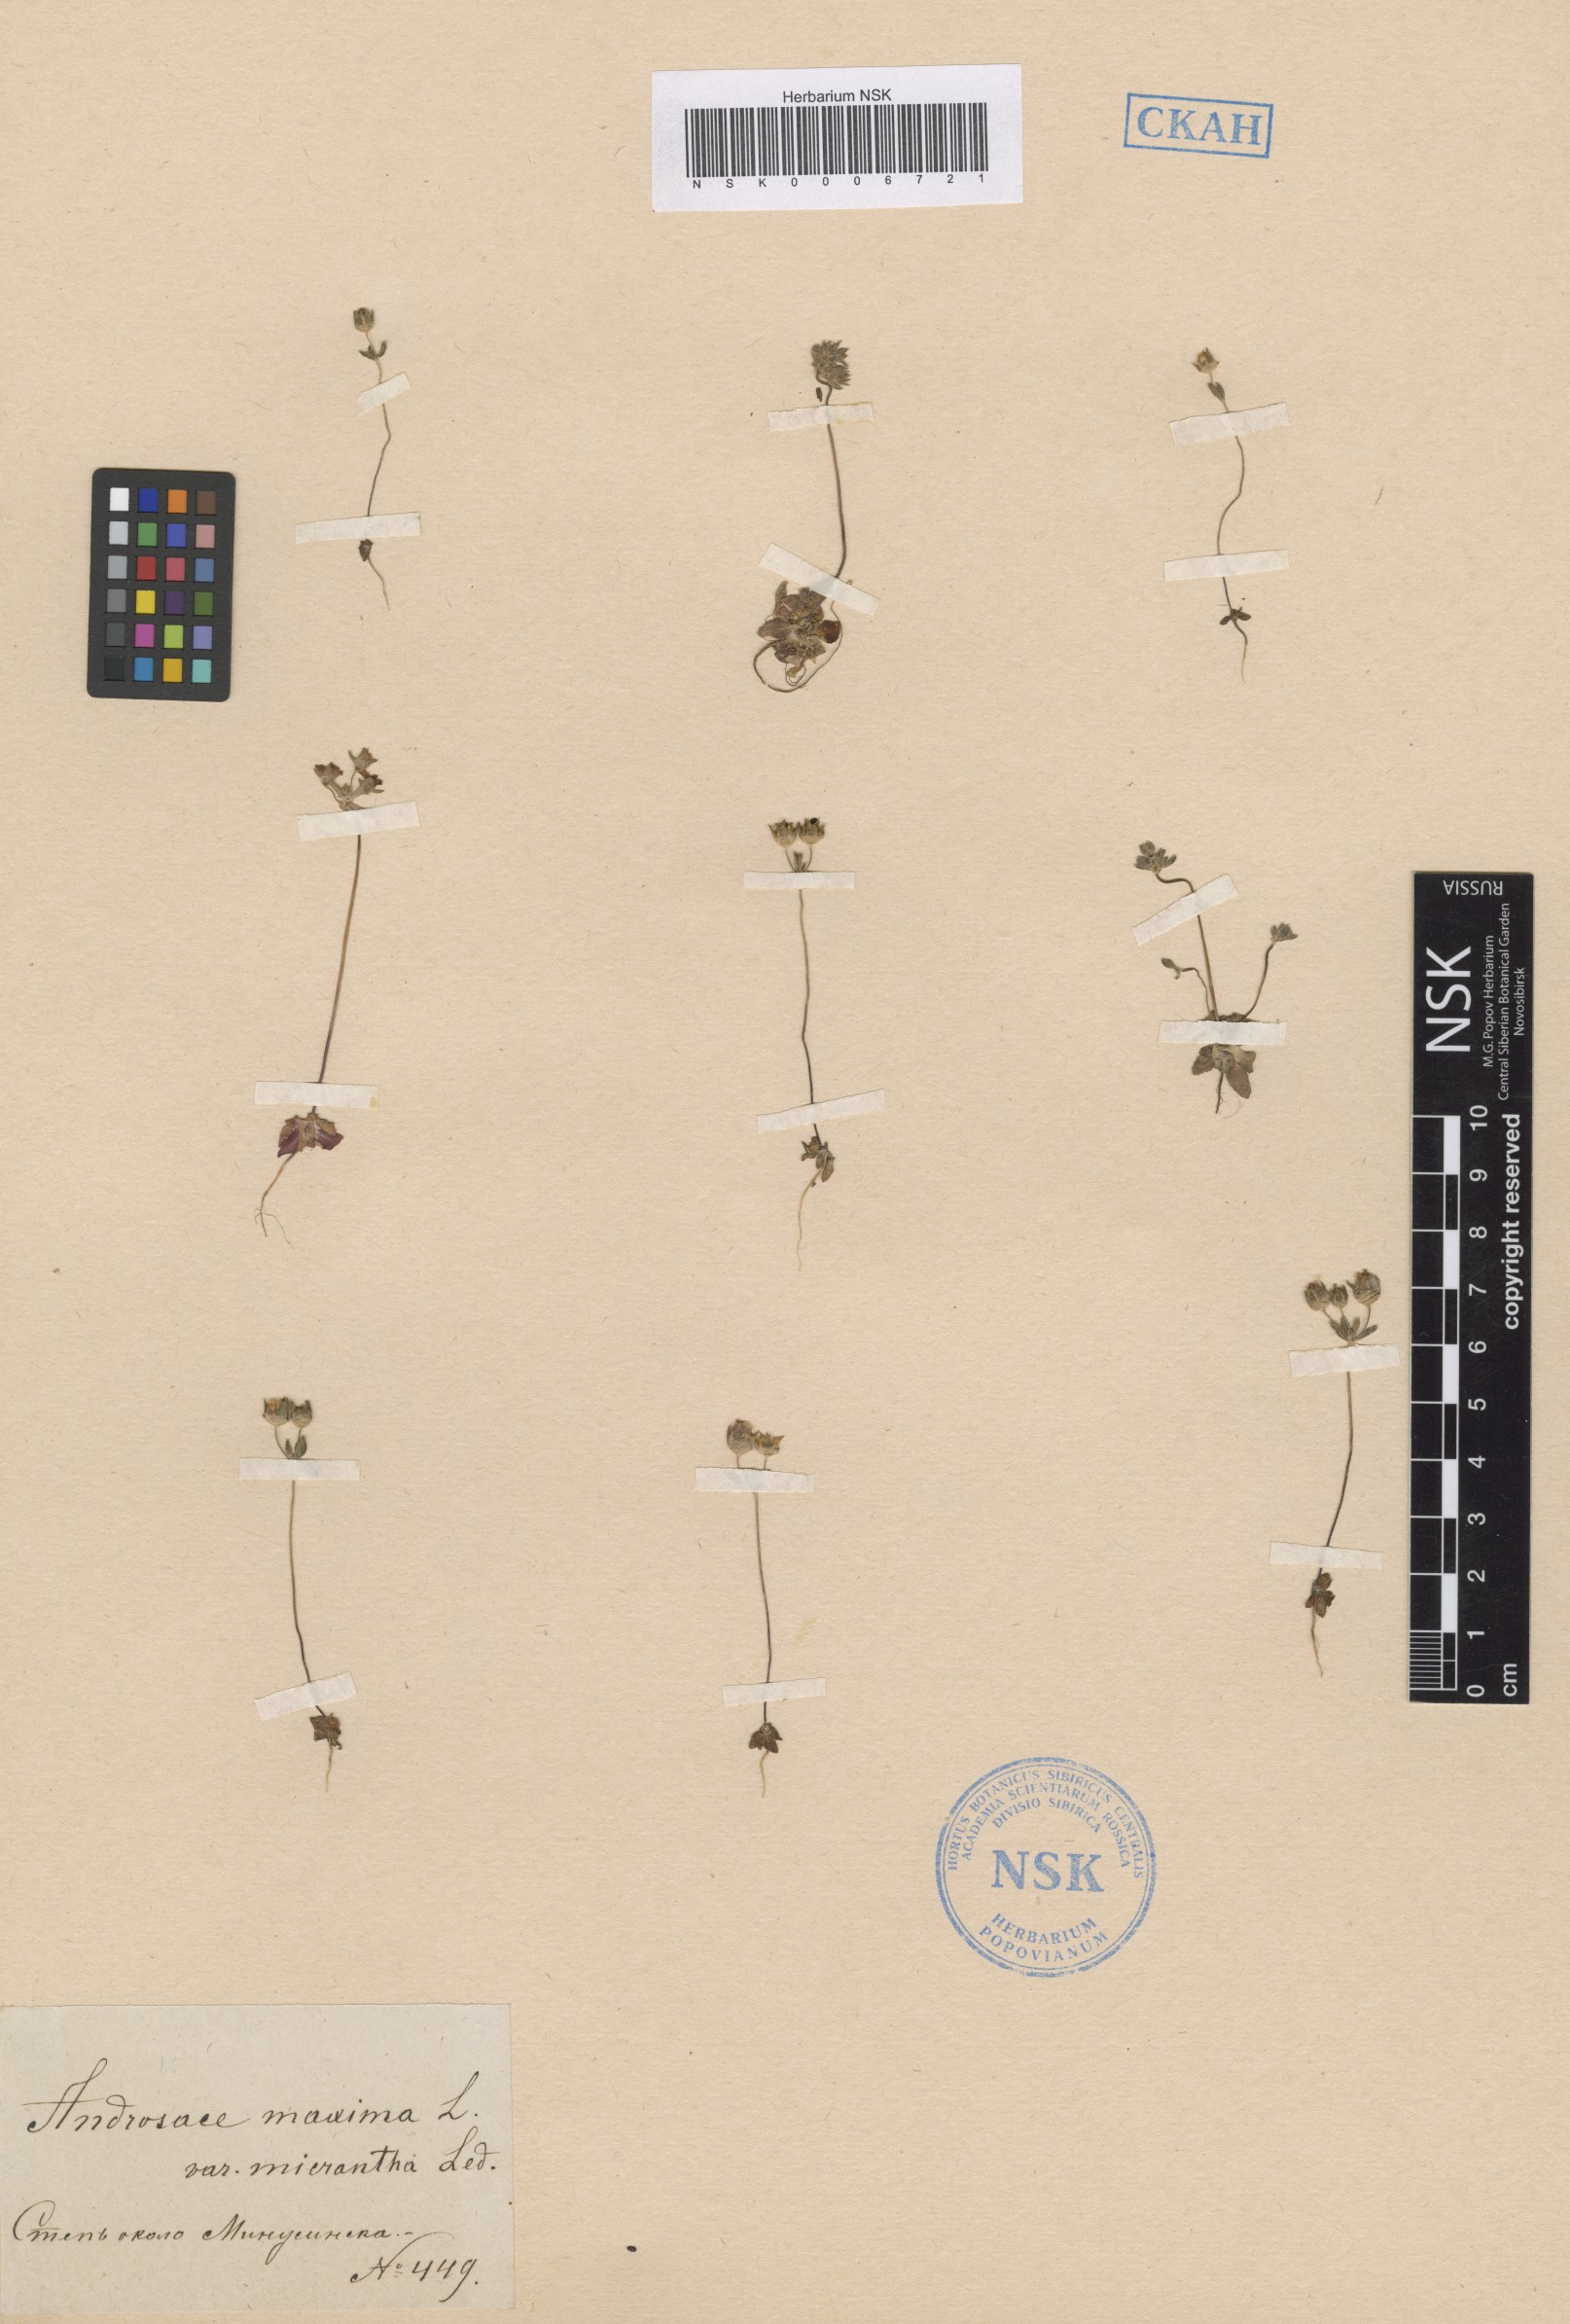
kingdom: Plantae
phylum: Tracheophyta
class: Magnoliopsida
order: Ericales
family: Primulaceae
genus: Androsace
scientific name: Androsace maxima
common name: Annual androsace
